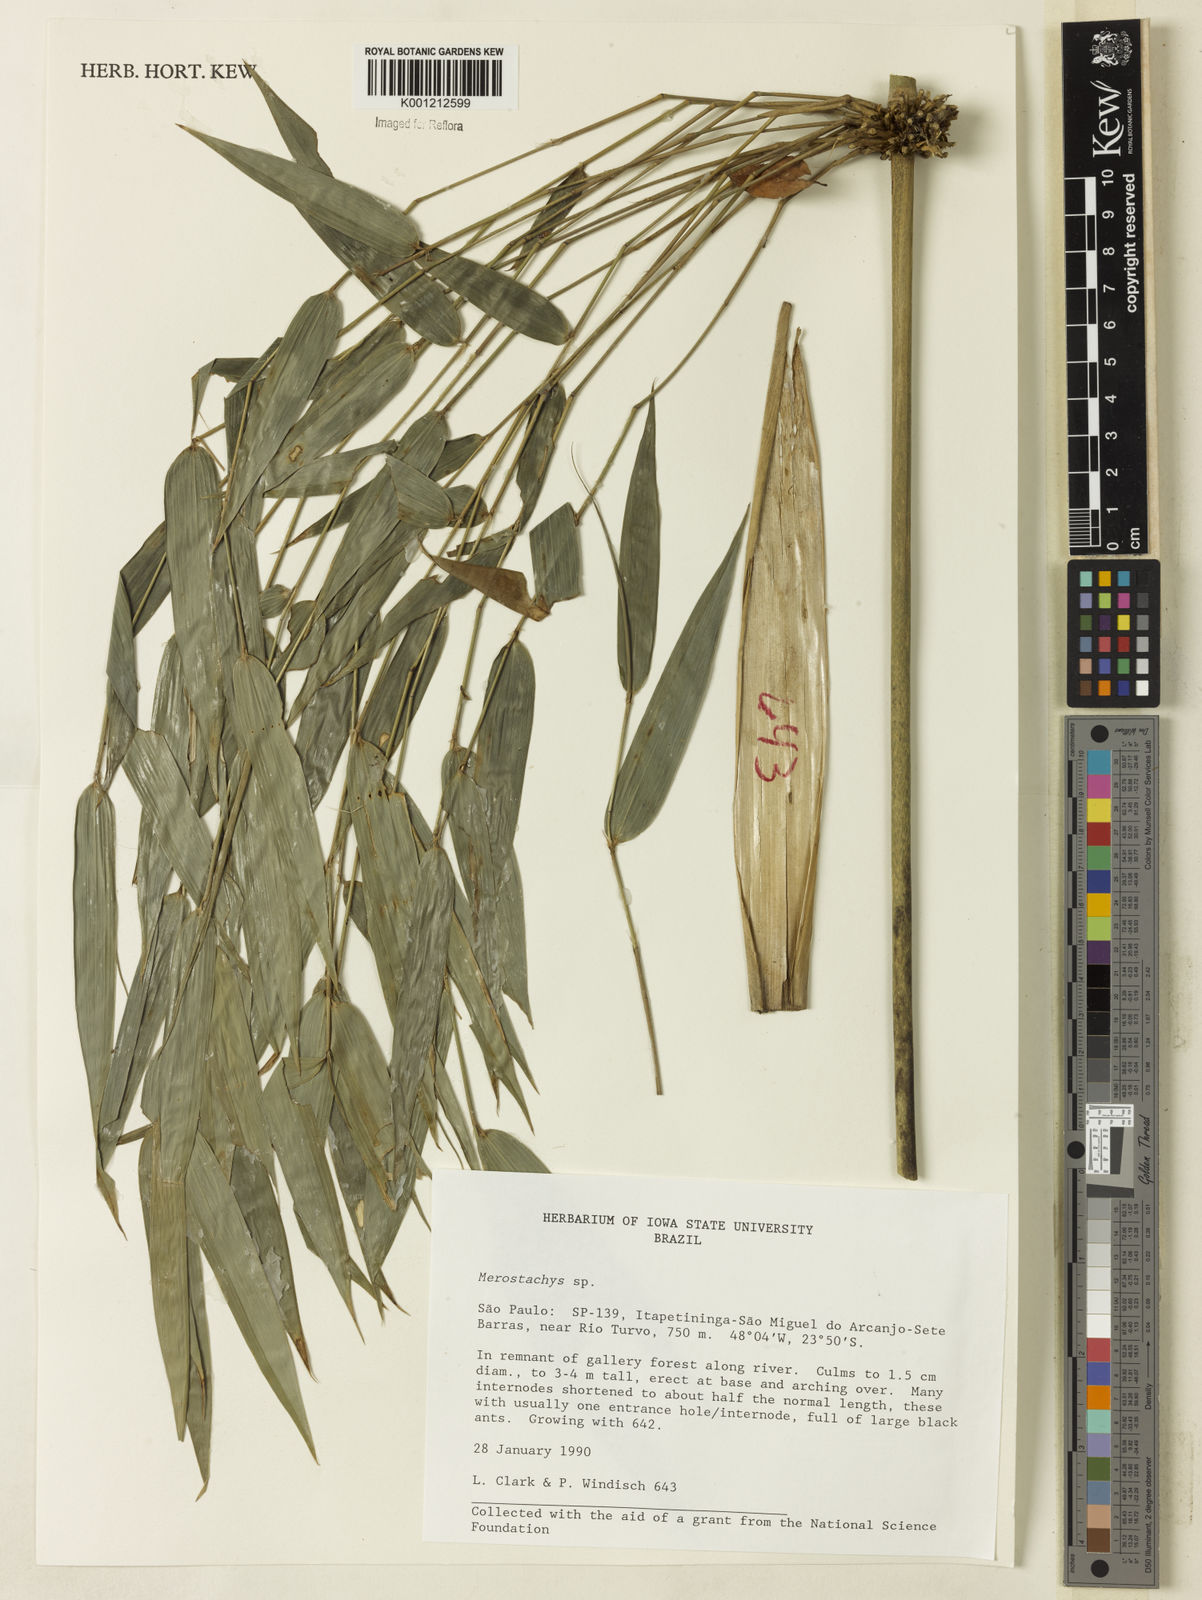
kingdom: Plantae
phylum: Tracheophyta
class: Liliopsida
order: Poales
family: Poaceae
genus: Merostachys
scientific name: Merostachys
